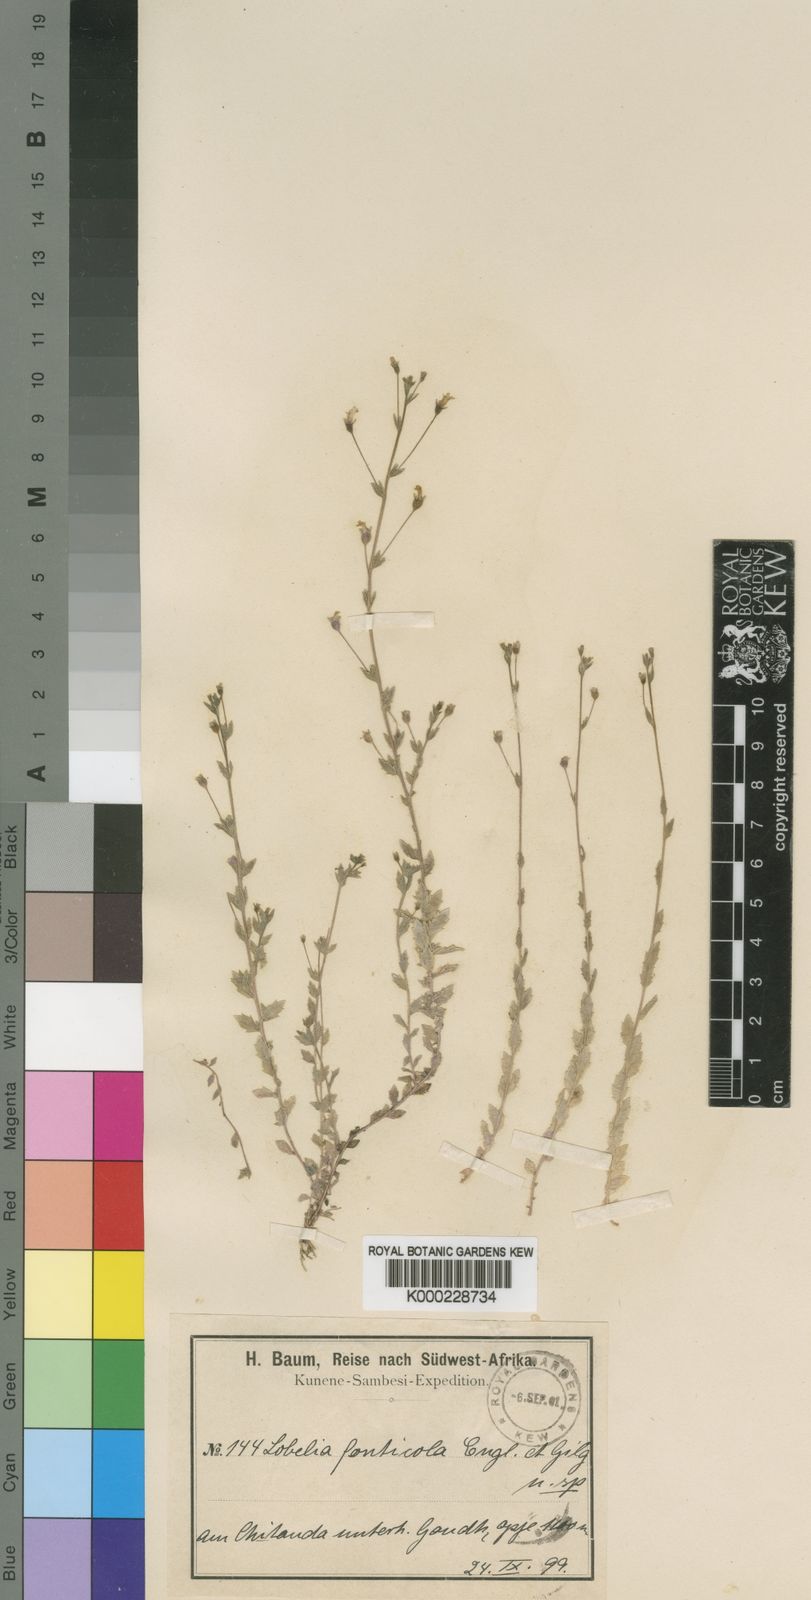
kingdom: Plantae
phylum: Tracheophyta
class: Magnoliopsida
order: Asterales
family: Campanulaceae
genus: Monopsis
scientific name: Monopsis zeyheri
